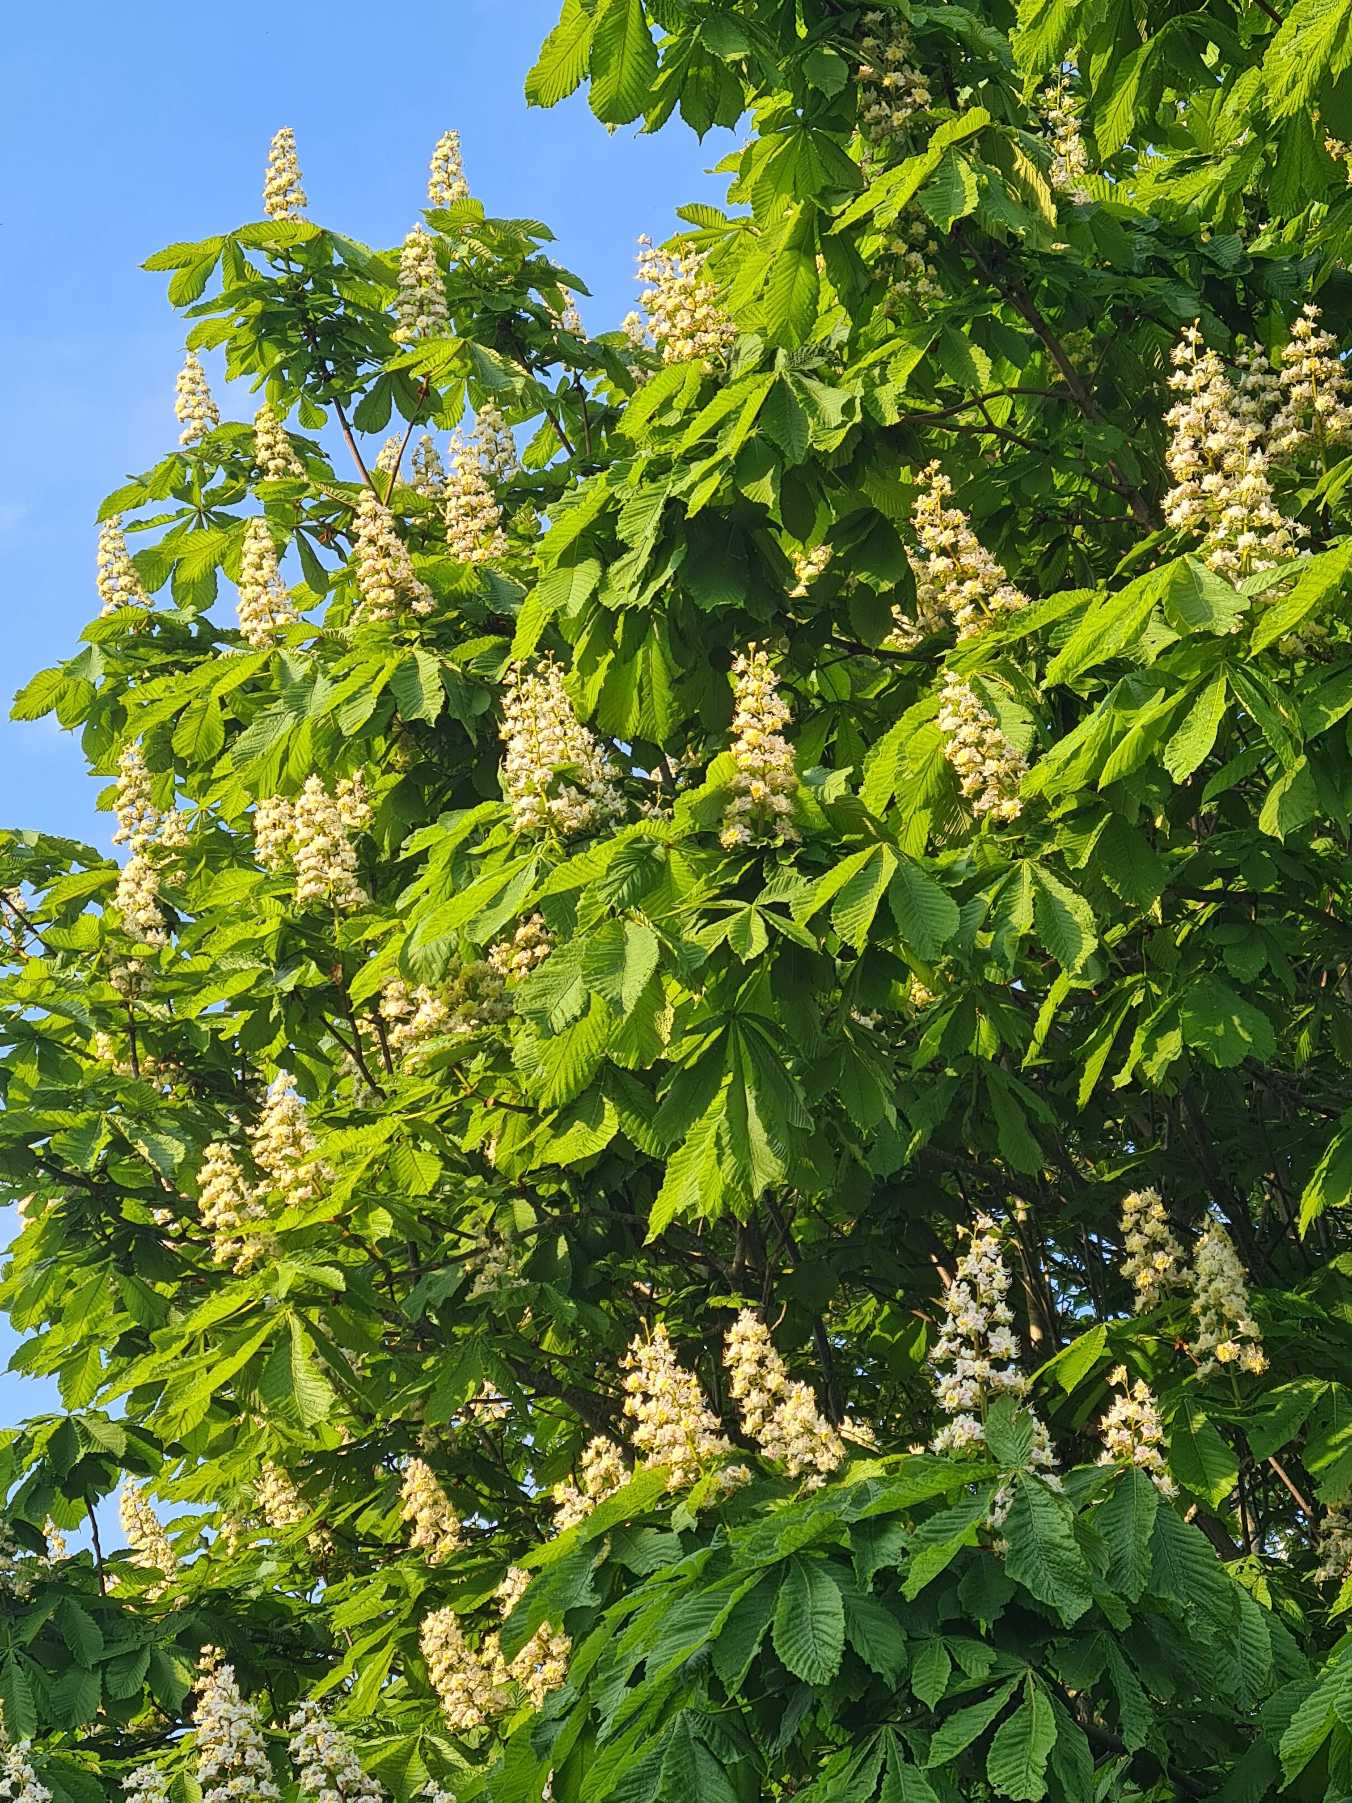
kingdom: Plantae
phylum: Tracheophyta
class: Magnoliopsida
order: Sapindales
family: Sapindaceae
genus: Aesculus
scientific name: Aesculus hippocastanum
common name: Hestekastanie
